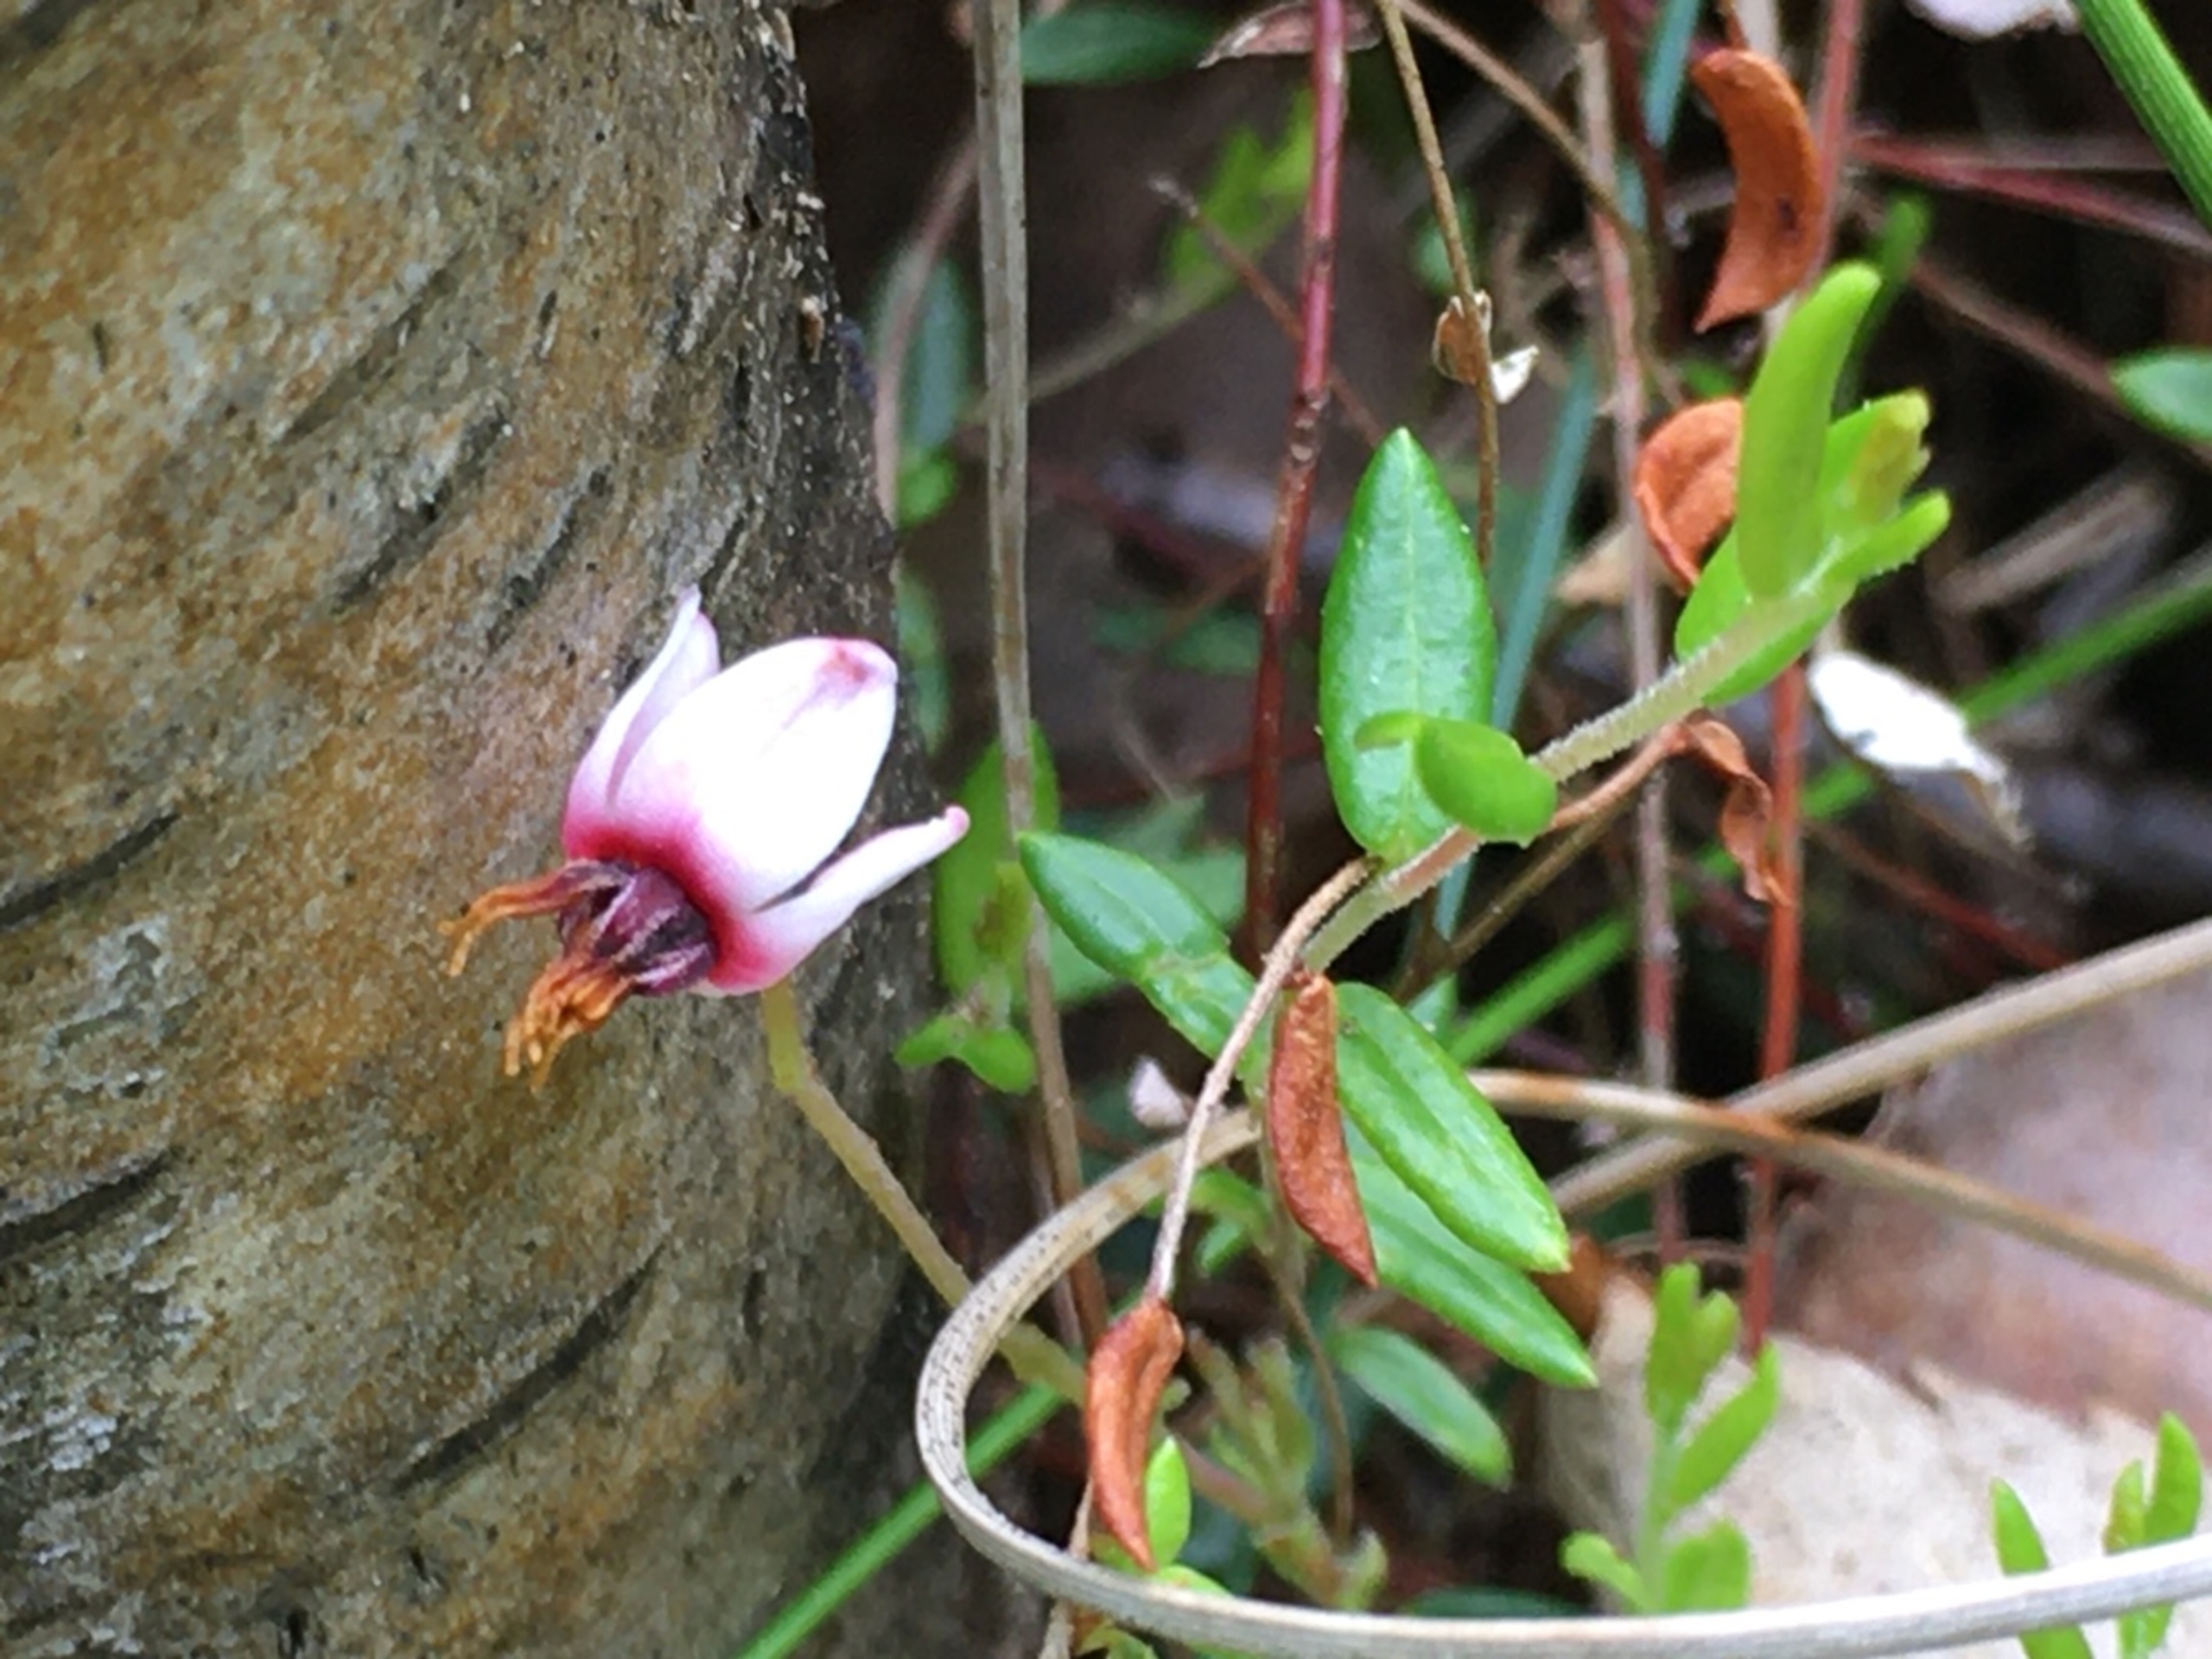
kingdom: Plantae
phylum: Tracheophyta
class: Magnoliopsida
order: Ericales
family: Ericaceae
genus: Vaccinium
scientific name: Vaccinium oxycoccos
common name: Tranebær
